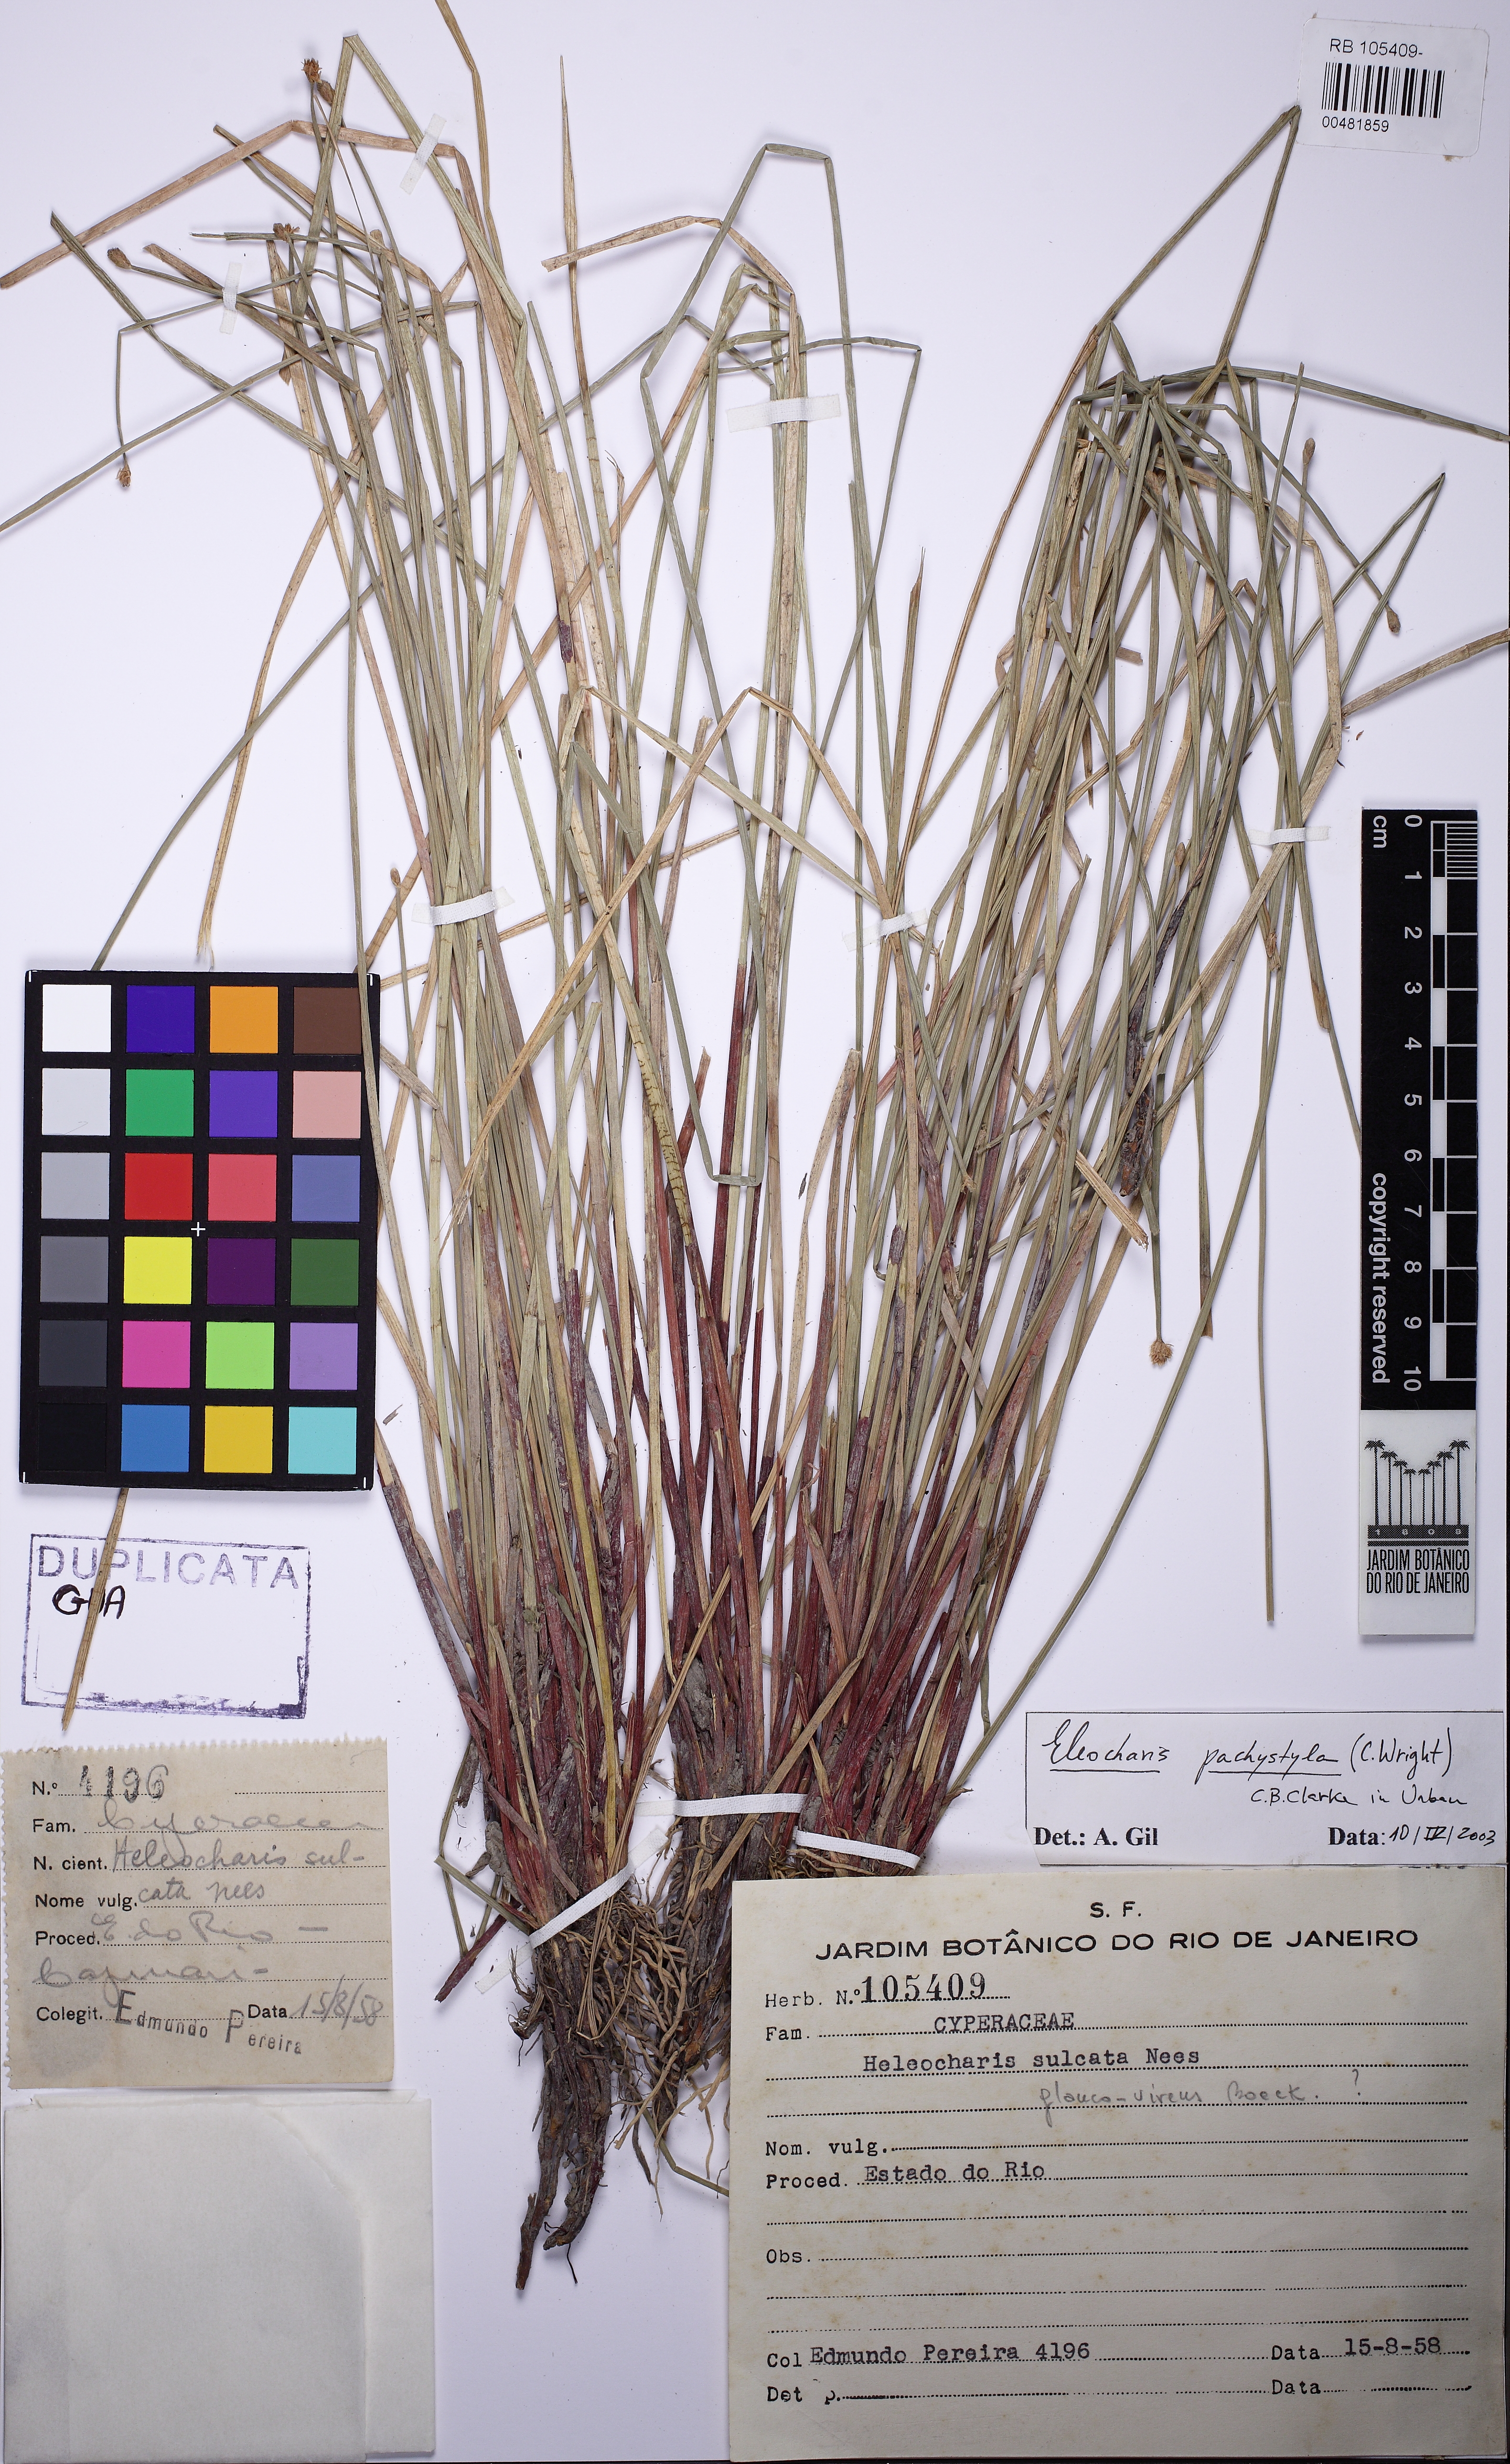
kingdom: Plantae
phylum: Tracheophyta
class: Liliopsida
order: Poales
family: Cyperaceae
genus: Eleocharis
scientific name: Eleocharis pachystyla
